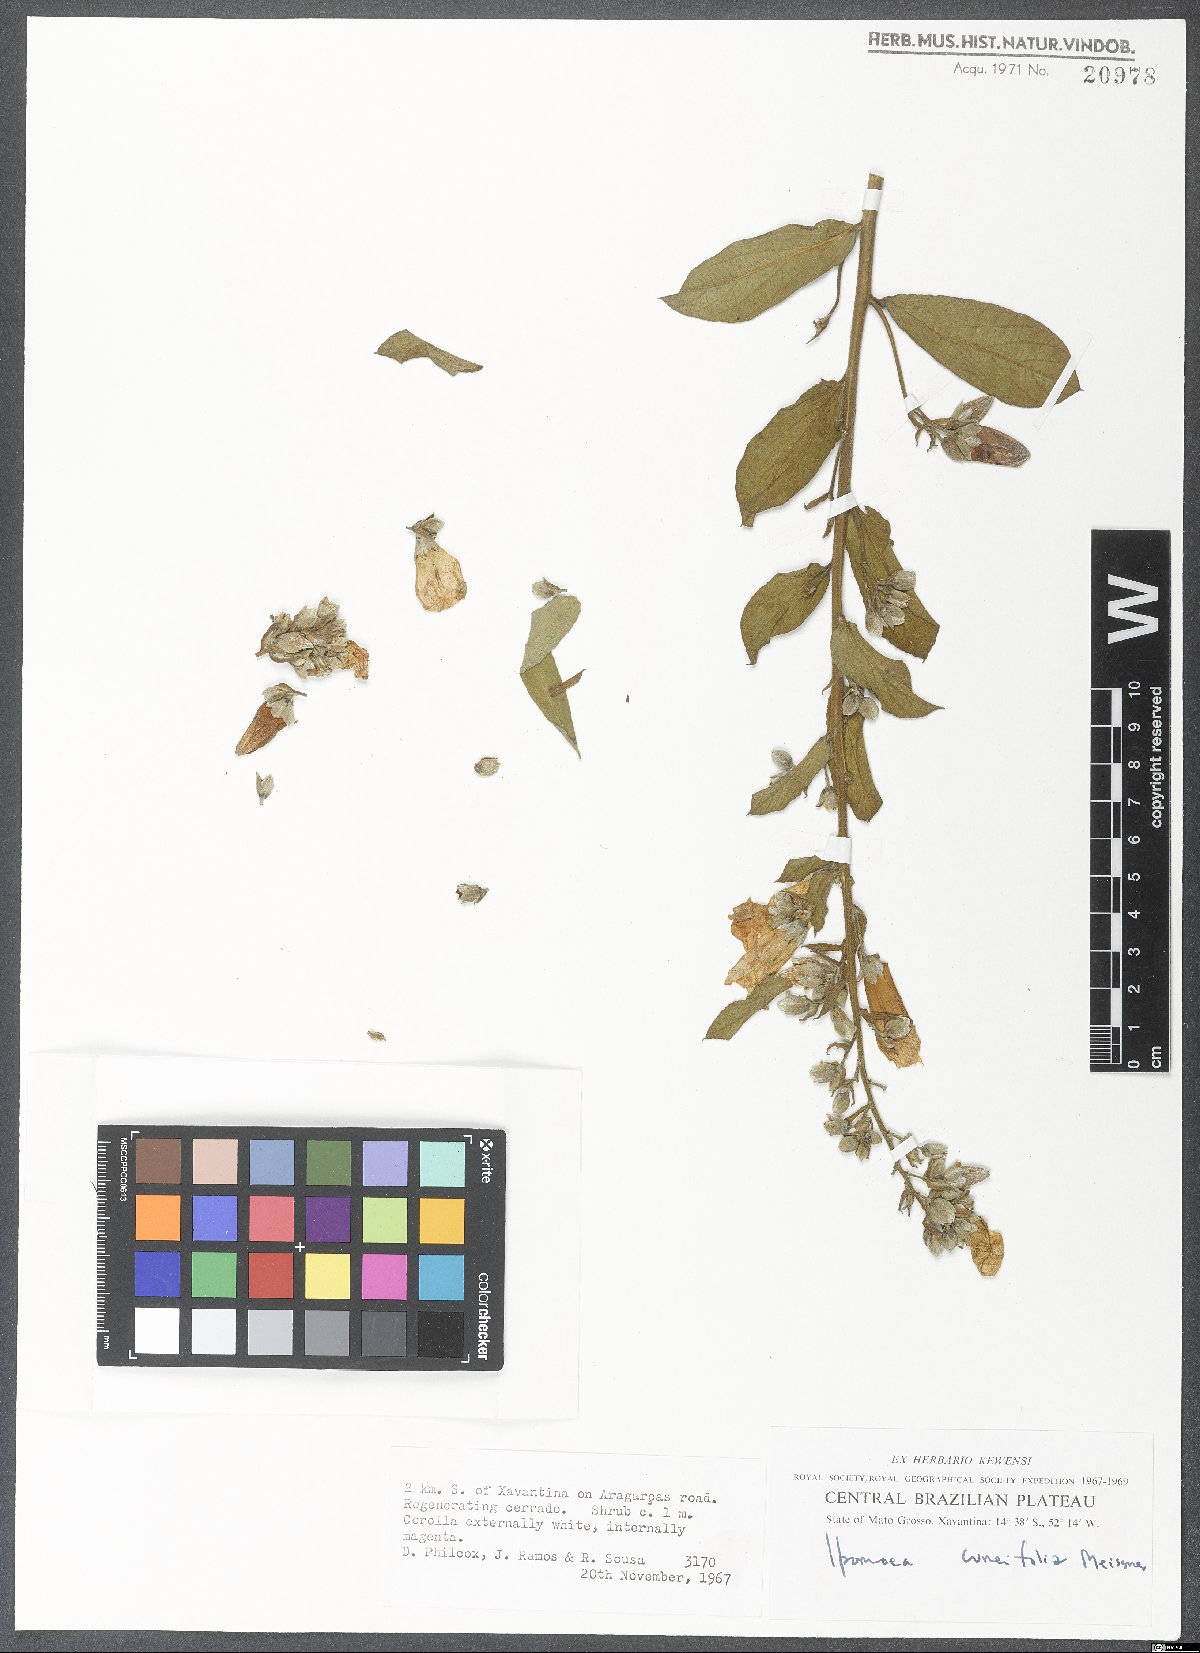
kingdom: Plantae
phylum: Tracheophyta
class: Magnoliopsida
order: Solanales
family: Convolvulaceae
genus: Ipomoea
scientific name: Ipomoea cuneifolia
